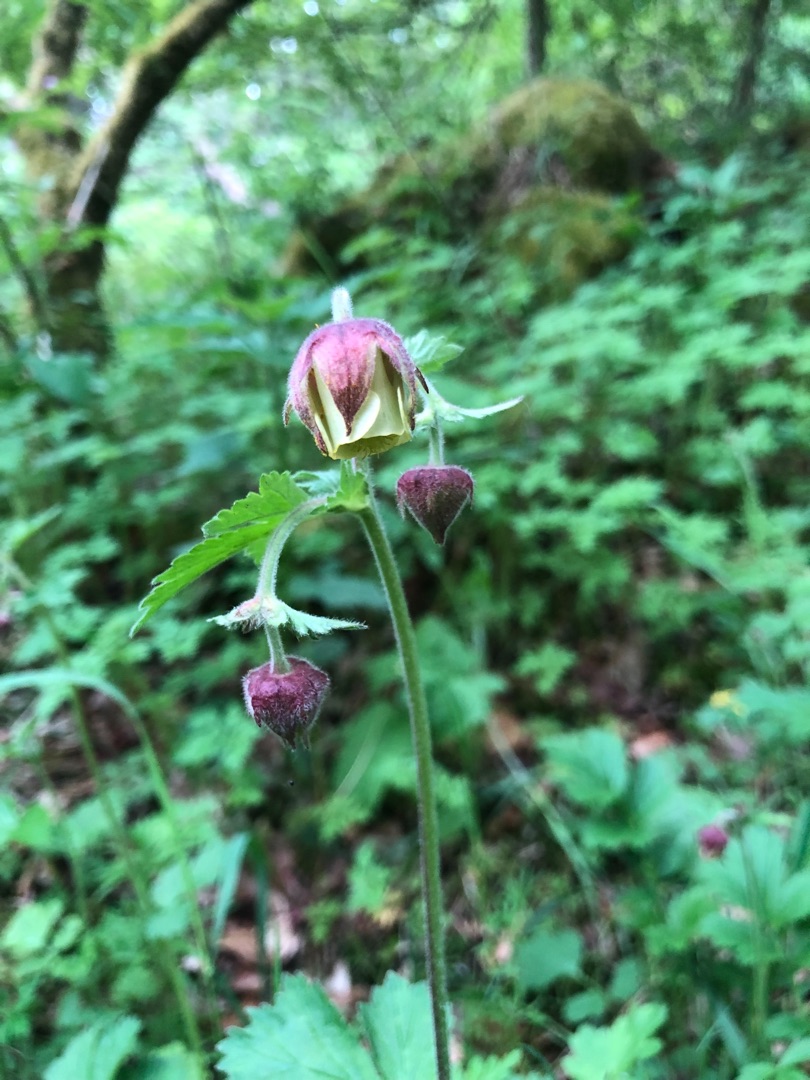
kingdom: Plantae
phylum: Tracheophyta
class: Magnoliopsida
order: Rosales
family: Rosaceae
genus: Geum
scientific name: Geum rivale
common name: Eng-nellikerod
